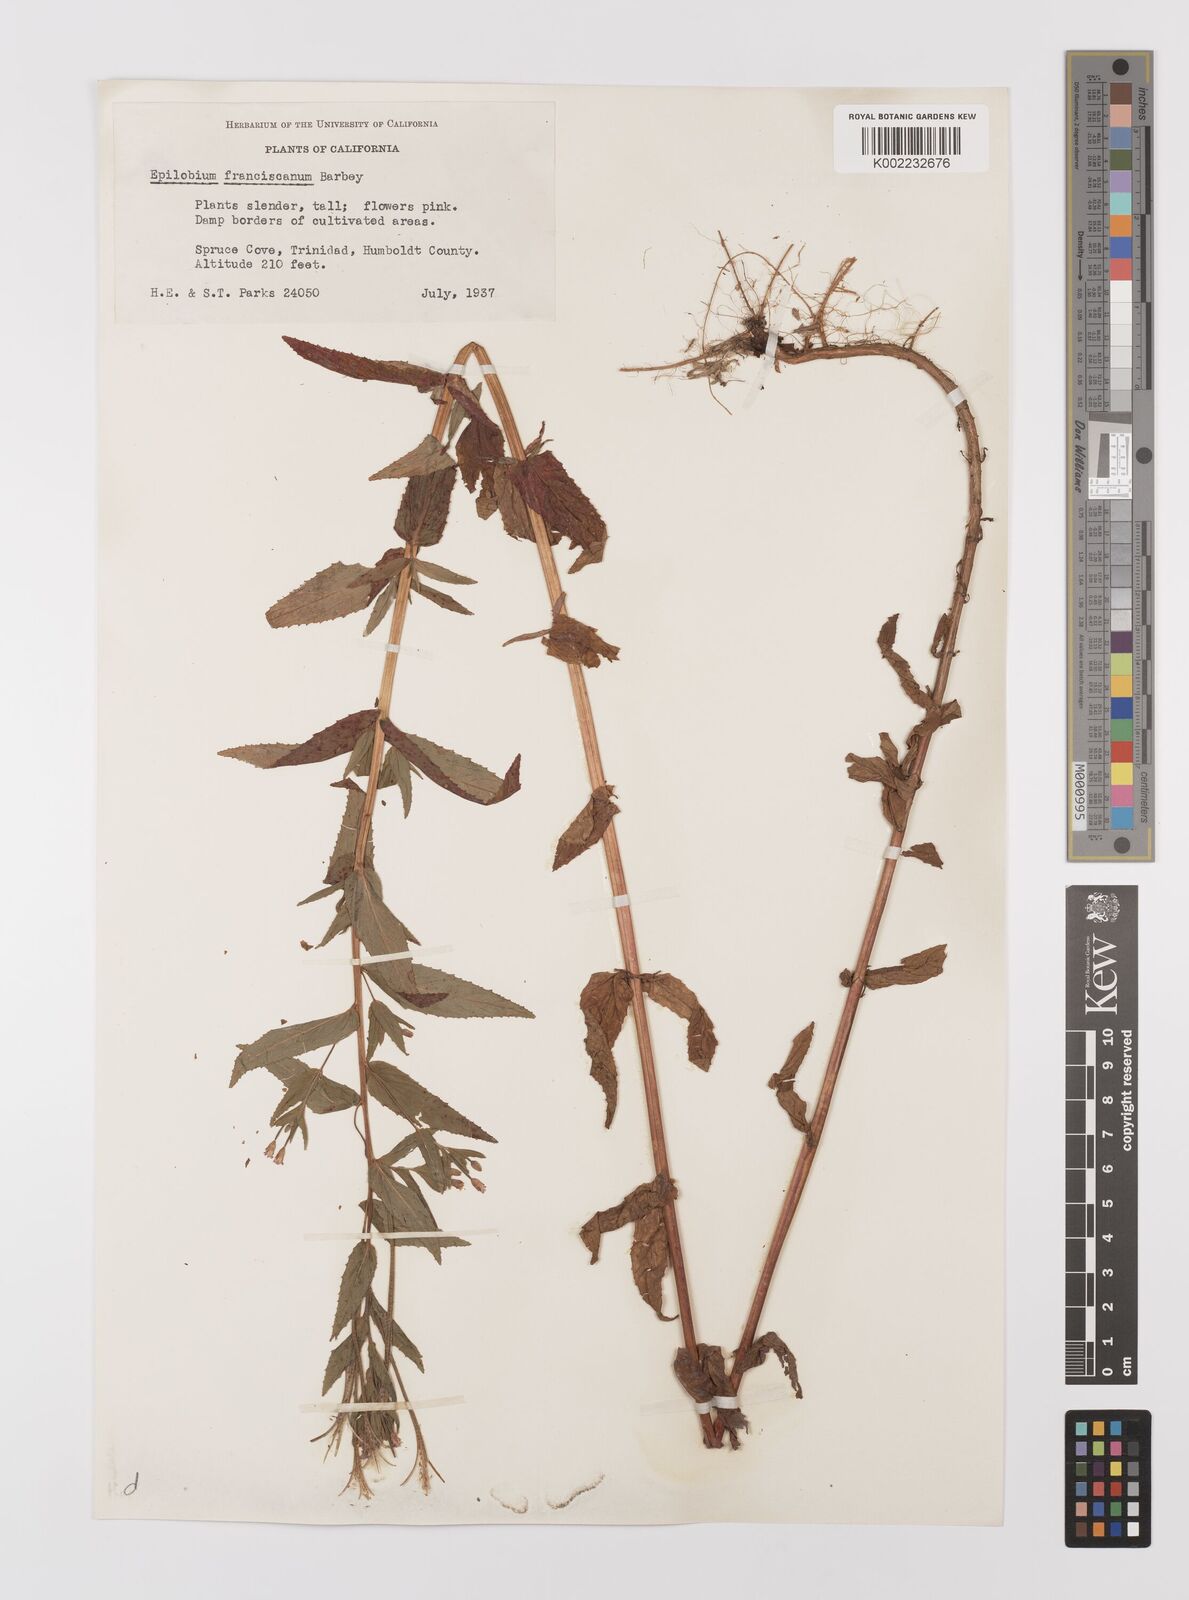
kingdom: Plantae
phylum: Tracheophyta
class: Magnoliopsida
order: Myrtales
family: Onagraceae
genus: Epilobium
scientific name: Epilobium ciliatum
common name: American willowherb
